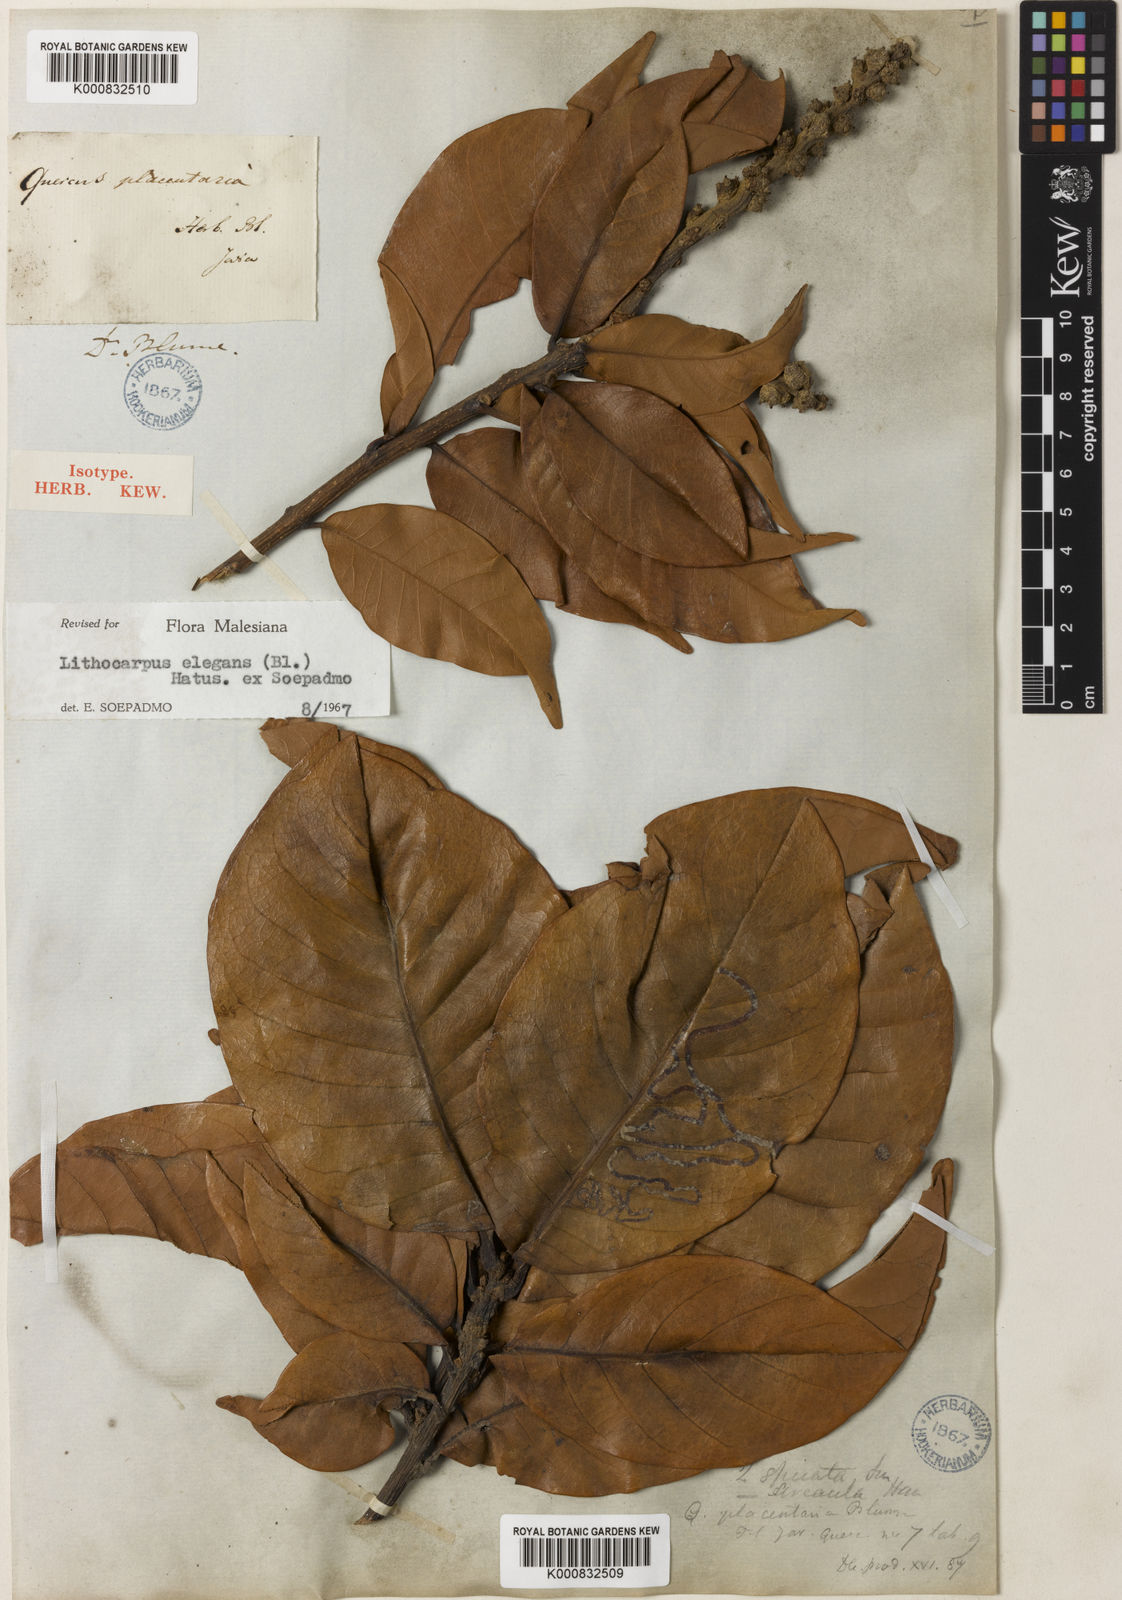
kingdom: Plantae
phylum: Tracheophyta
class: Magnoliopsida
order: Fagales
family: Fagaceae
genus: Lithocarpus
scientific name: Lithocarpus elegans
